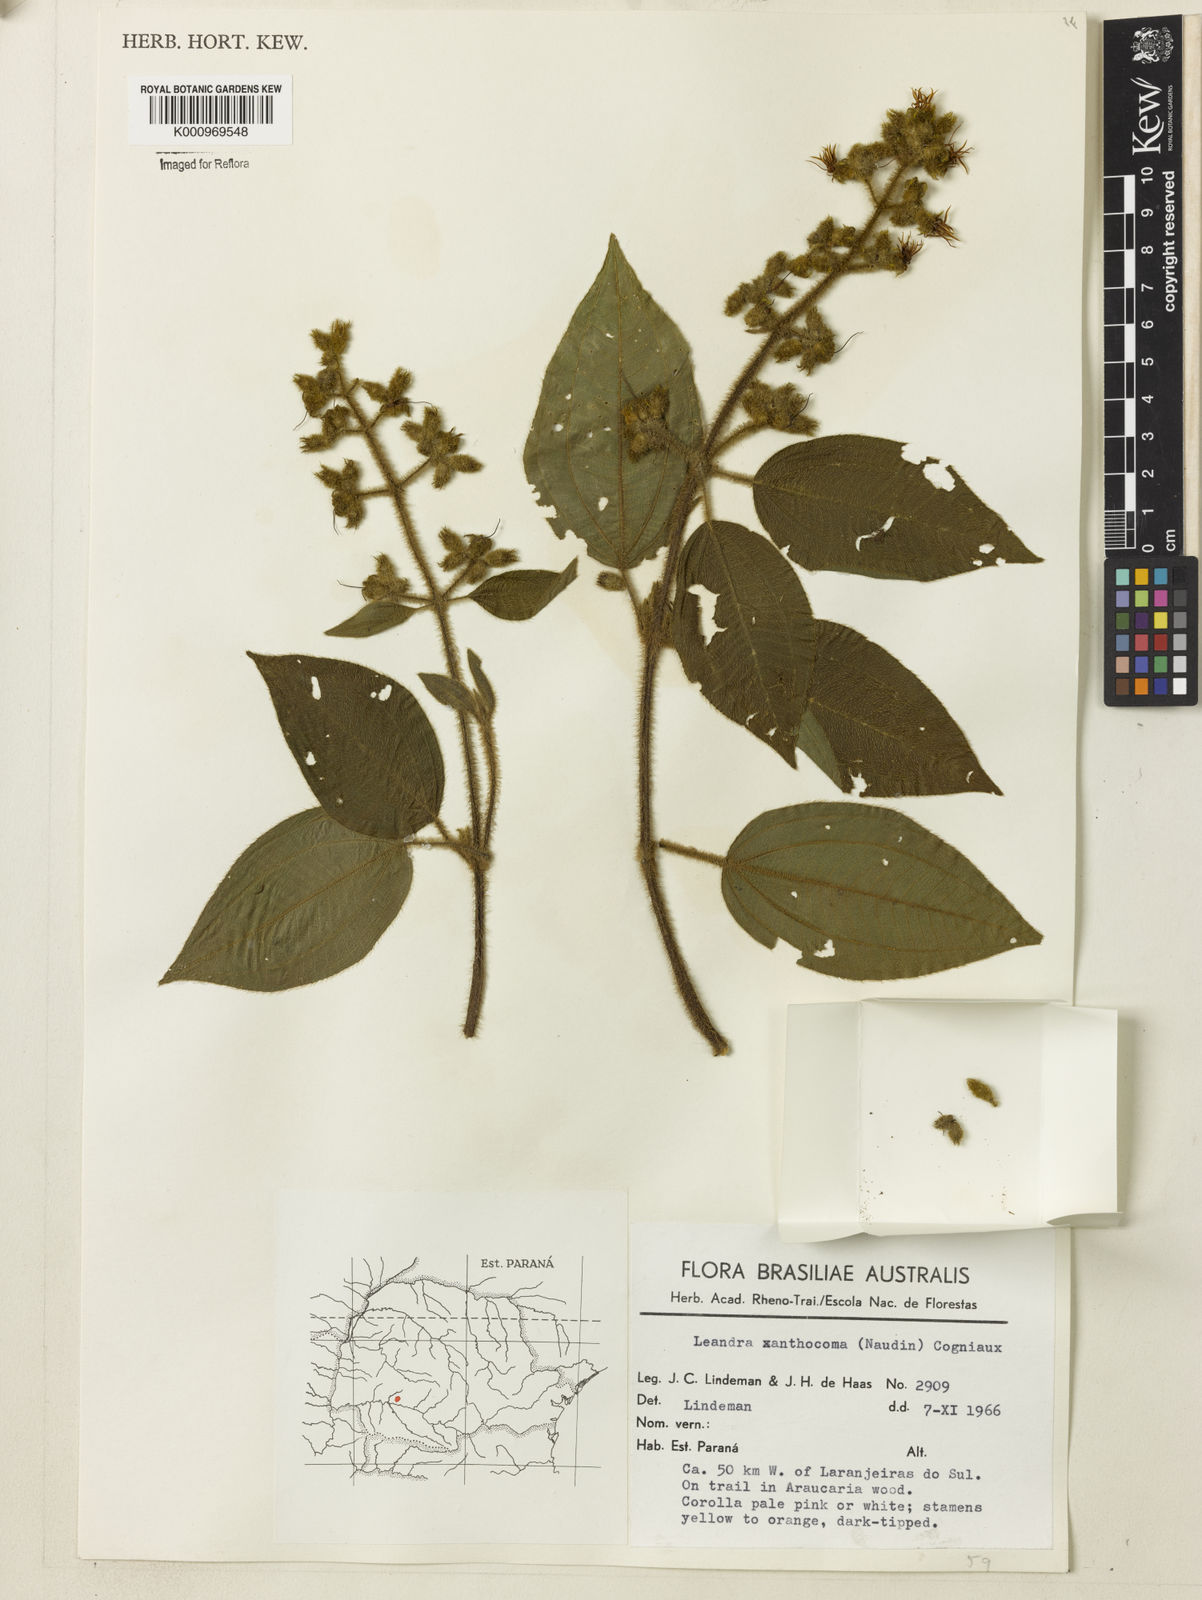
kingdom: Plantae
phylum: Tracheophyta
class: Magnoliopsida
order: Myrtales
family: Melastomataceae
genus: Miconia
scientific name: Miconia xanthocoma
